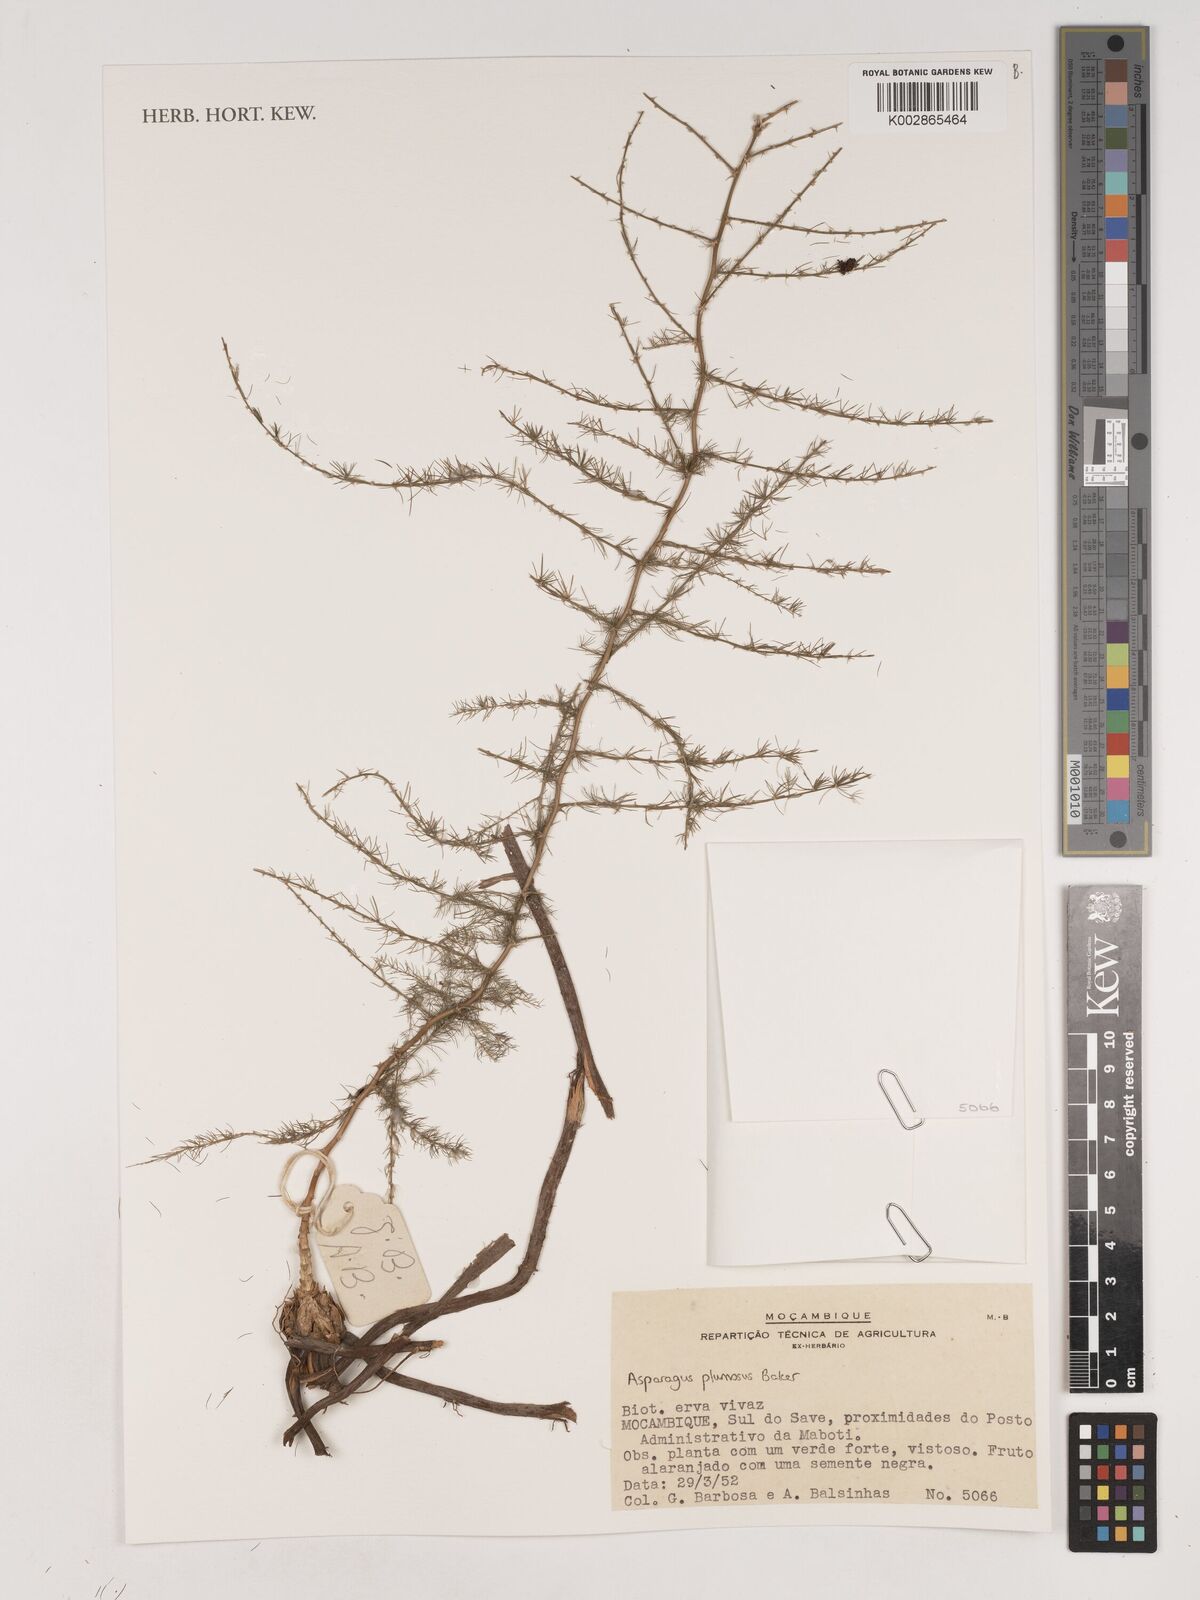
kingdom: Plantae
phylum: Tracheophyta
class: Liliopsida
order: Asparagales
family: Asparagaceae
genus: Asparagus
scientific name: Asparagus setaceus
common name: Common asparagus fern
